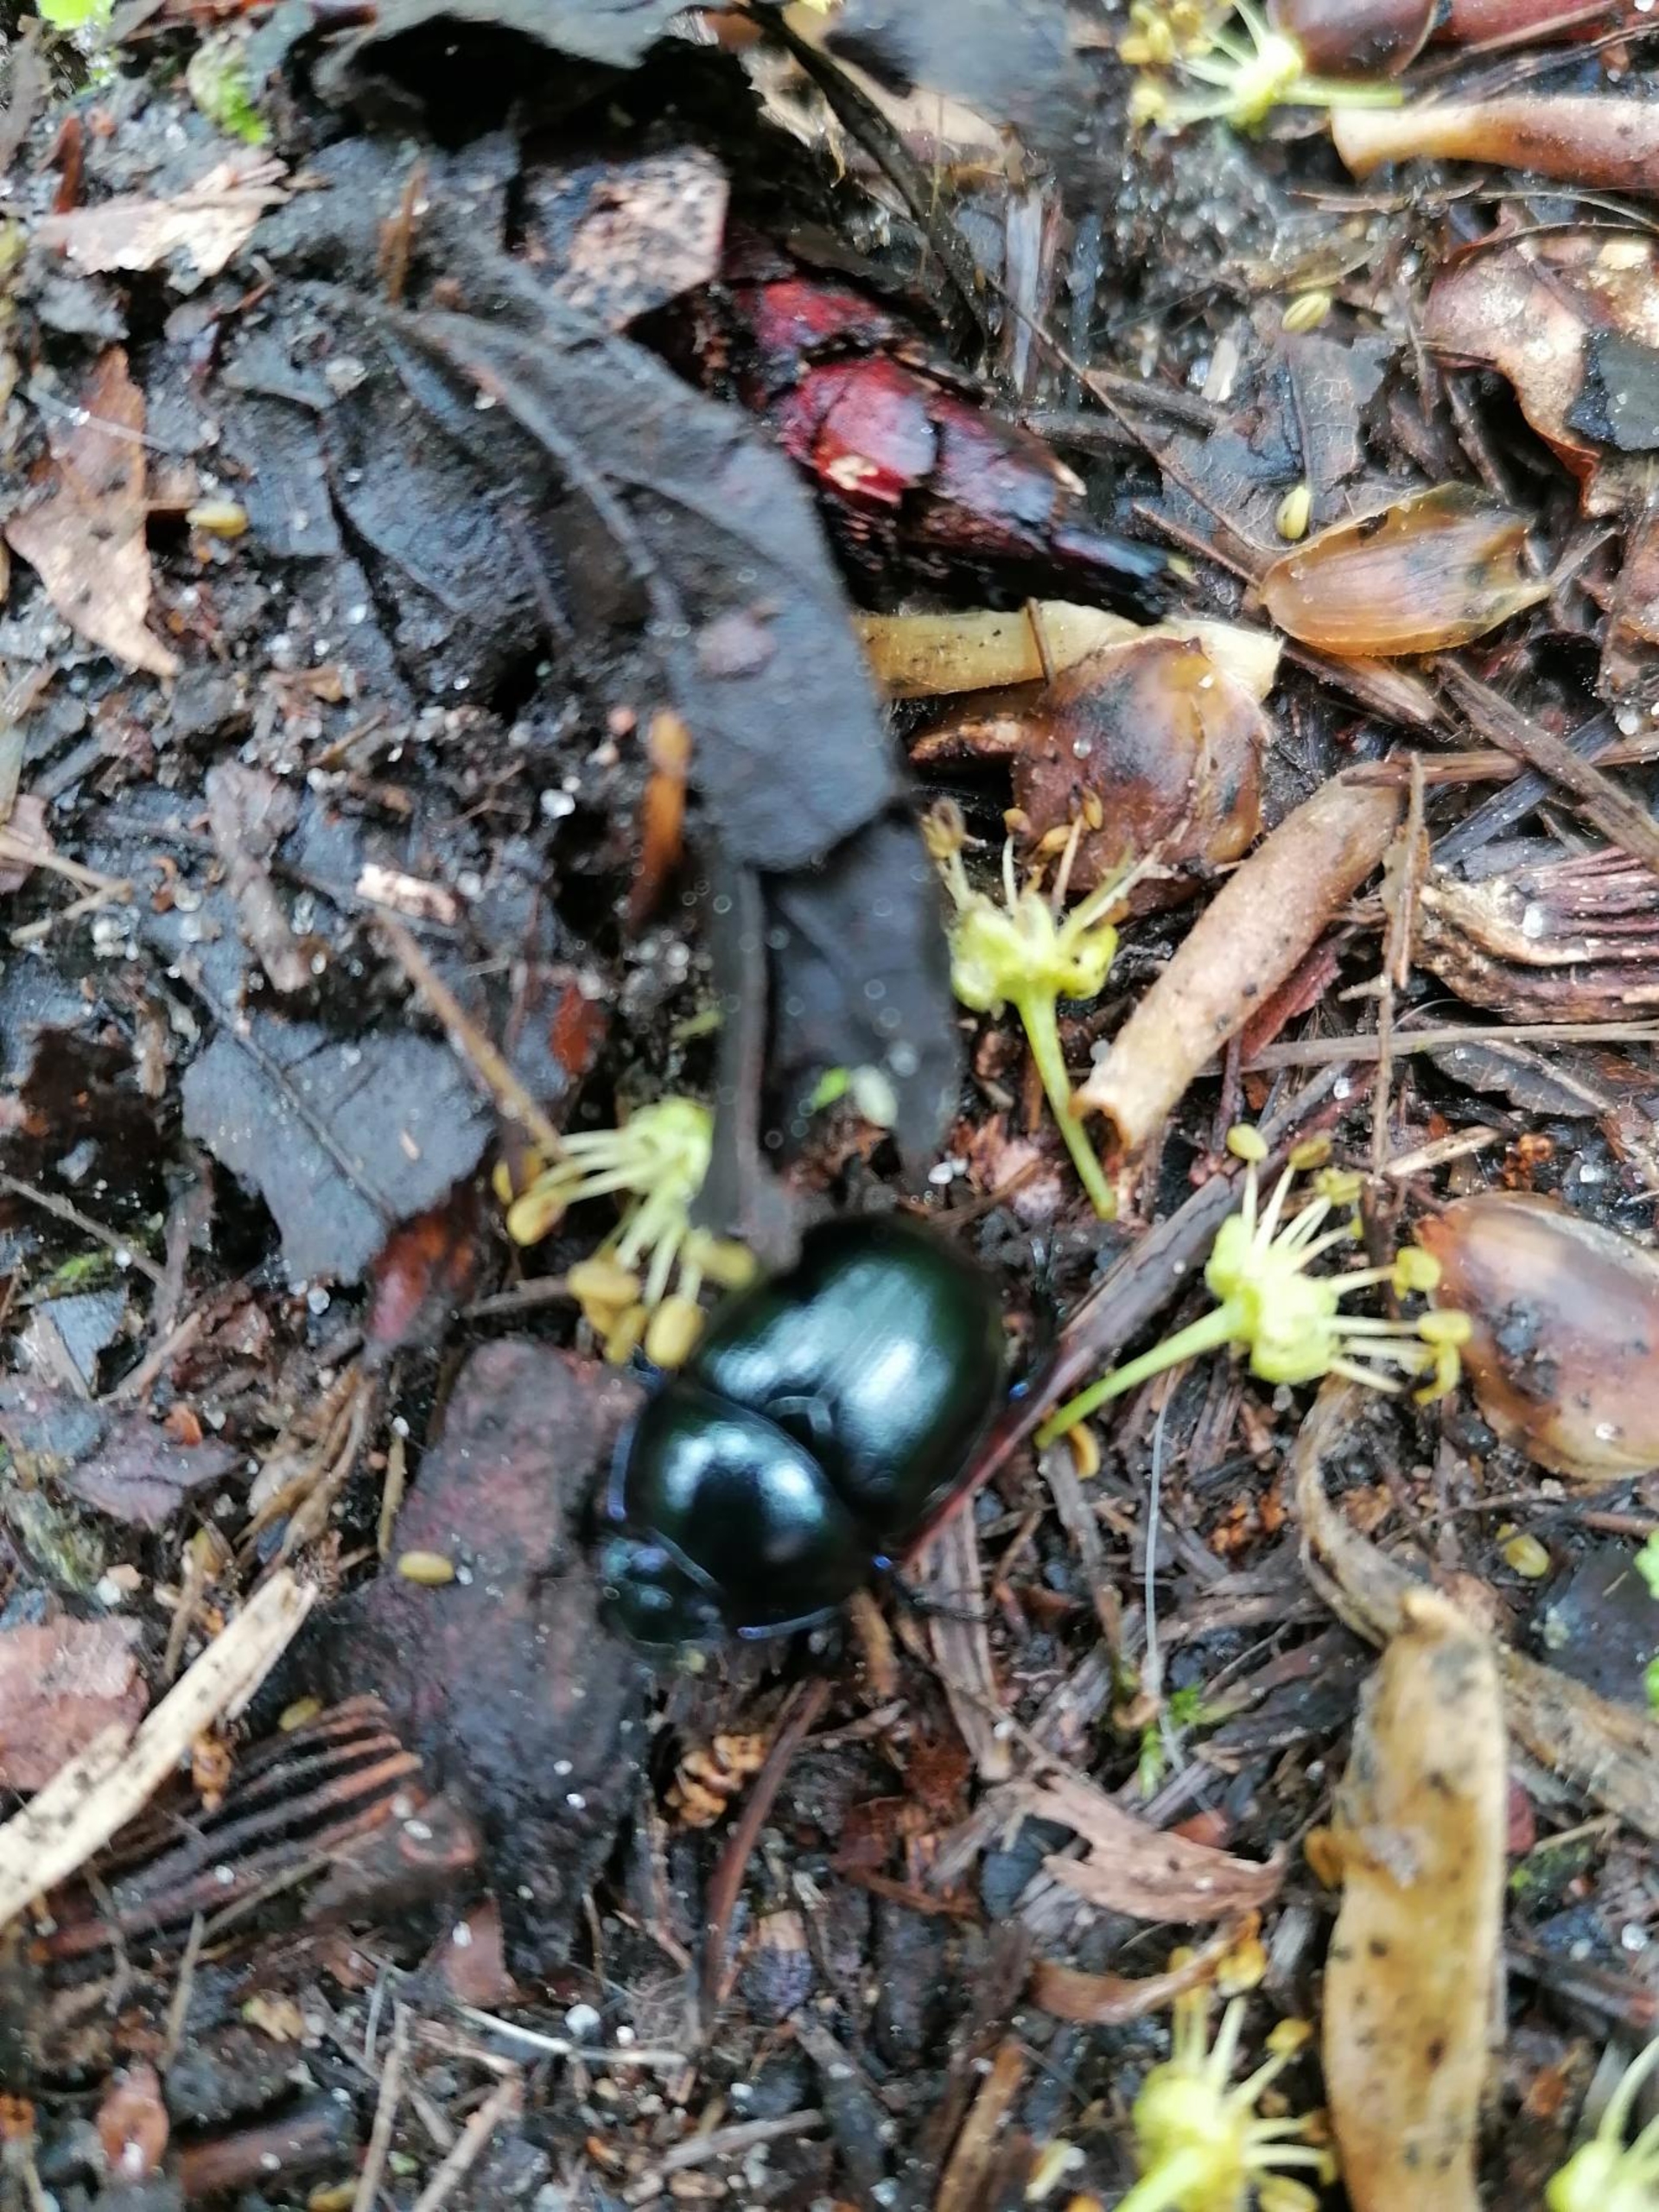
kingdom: Animalia
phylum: Arthropoda
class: Insecta
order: Coleoptera
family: Geotrupidae
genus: Anoplotrupes
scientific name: Anoplotrupes stercorosus
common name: Skovskarnbasse
